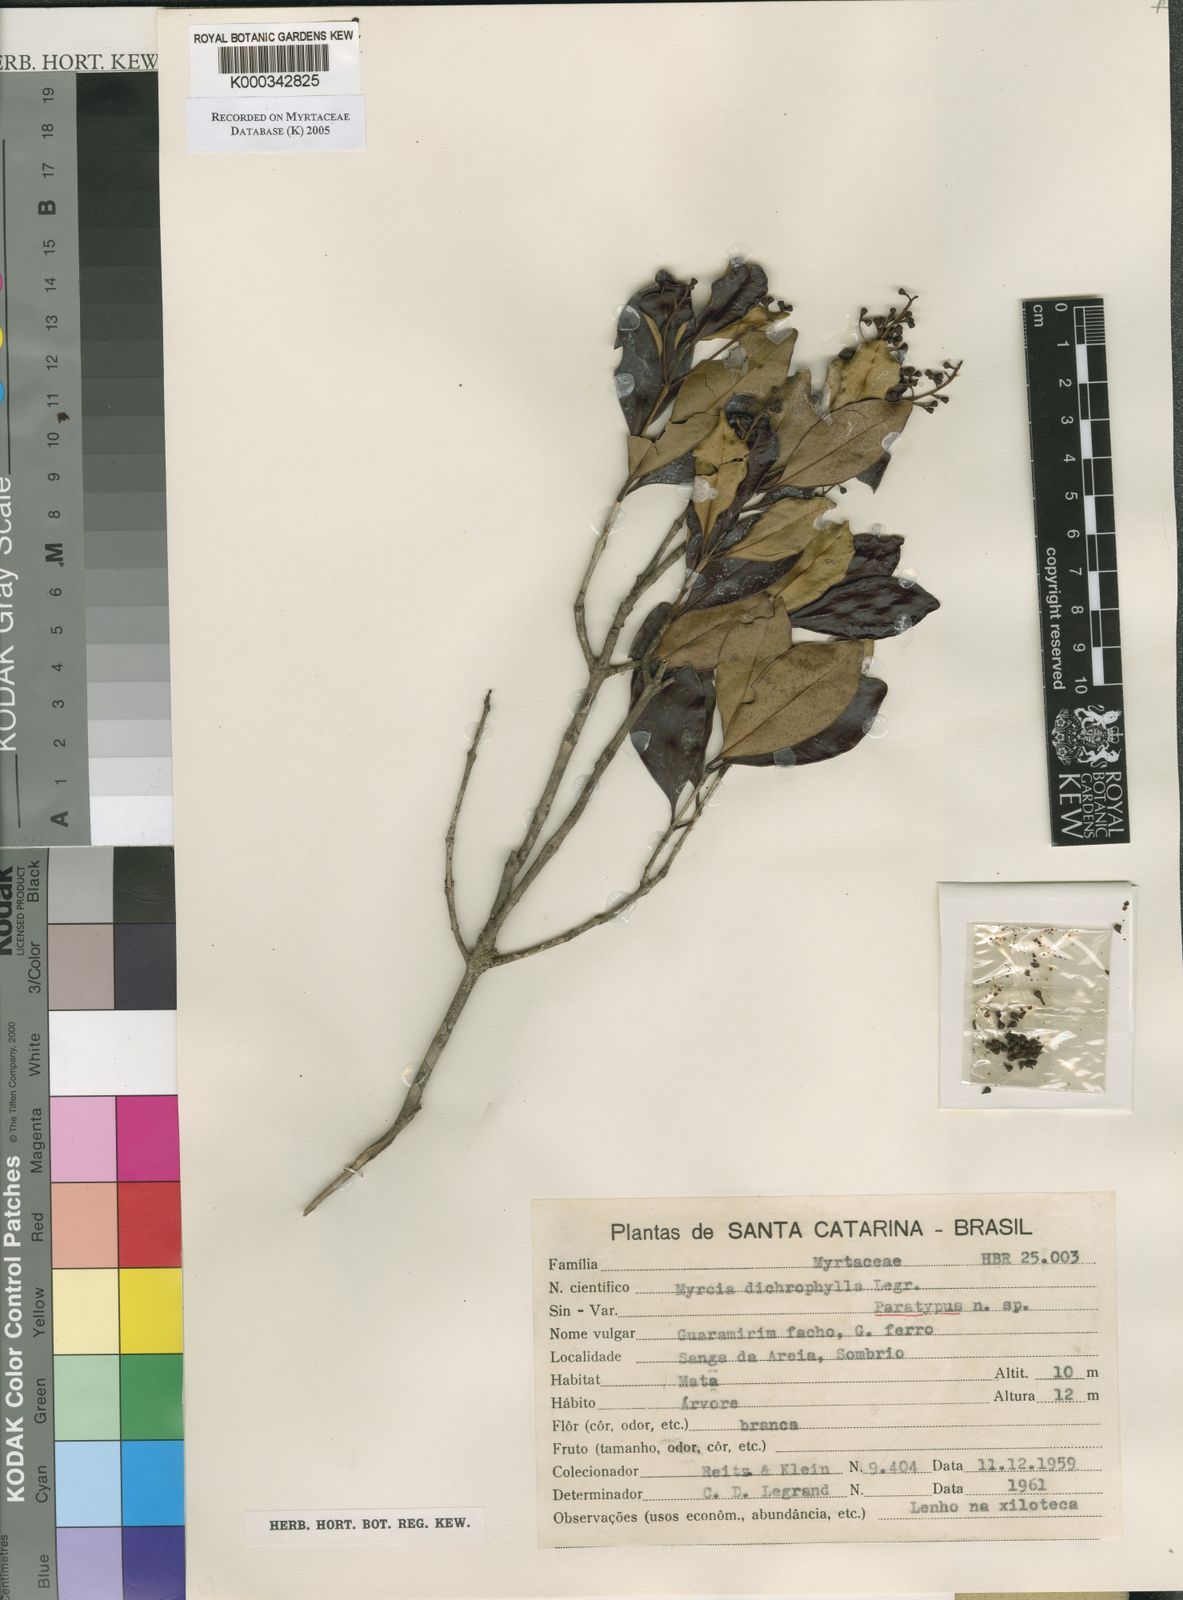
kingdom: Plantae
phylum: Tracheophyta
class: Magnoliopsida
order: Myrtales
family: Myrtaceae
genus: Myrcia
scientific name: Myrcia dichrophylla
